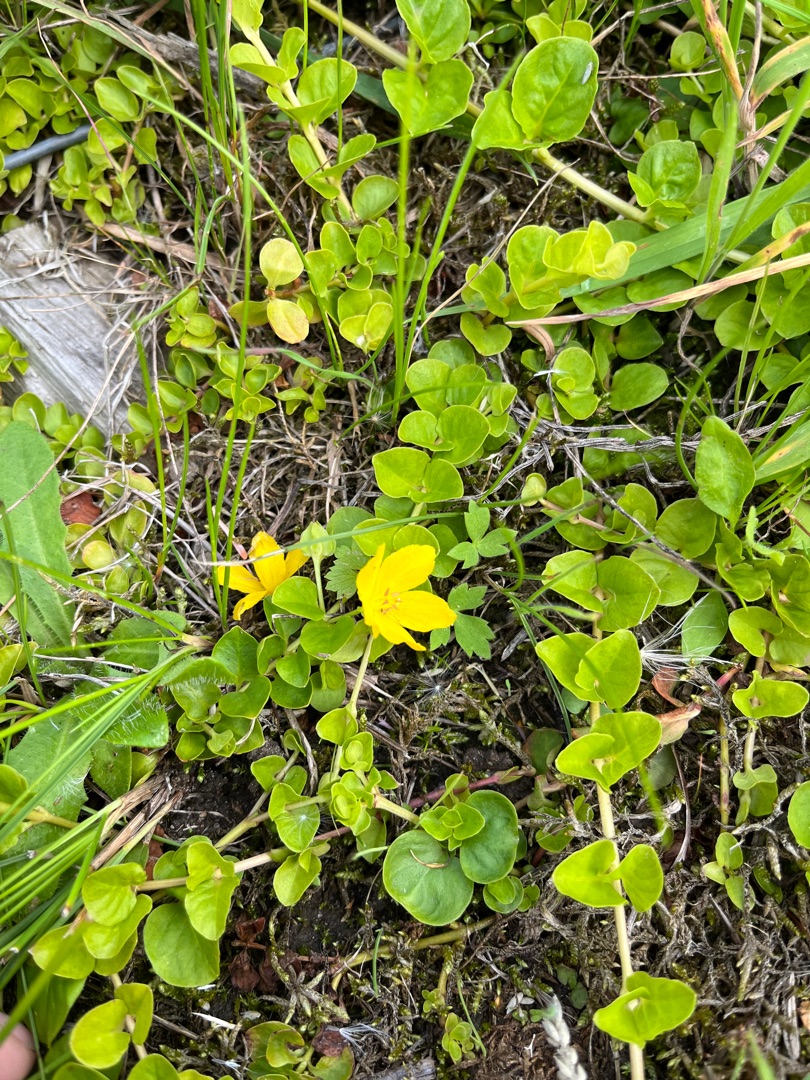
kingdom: Plantae
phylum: Tracheophyta
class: Magnoliopsida
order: Ericales
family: Primulaceae
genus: Lysimachia
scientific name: Lysimachia nummularia
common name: Pengebladet fredløs
